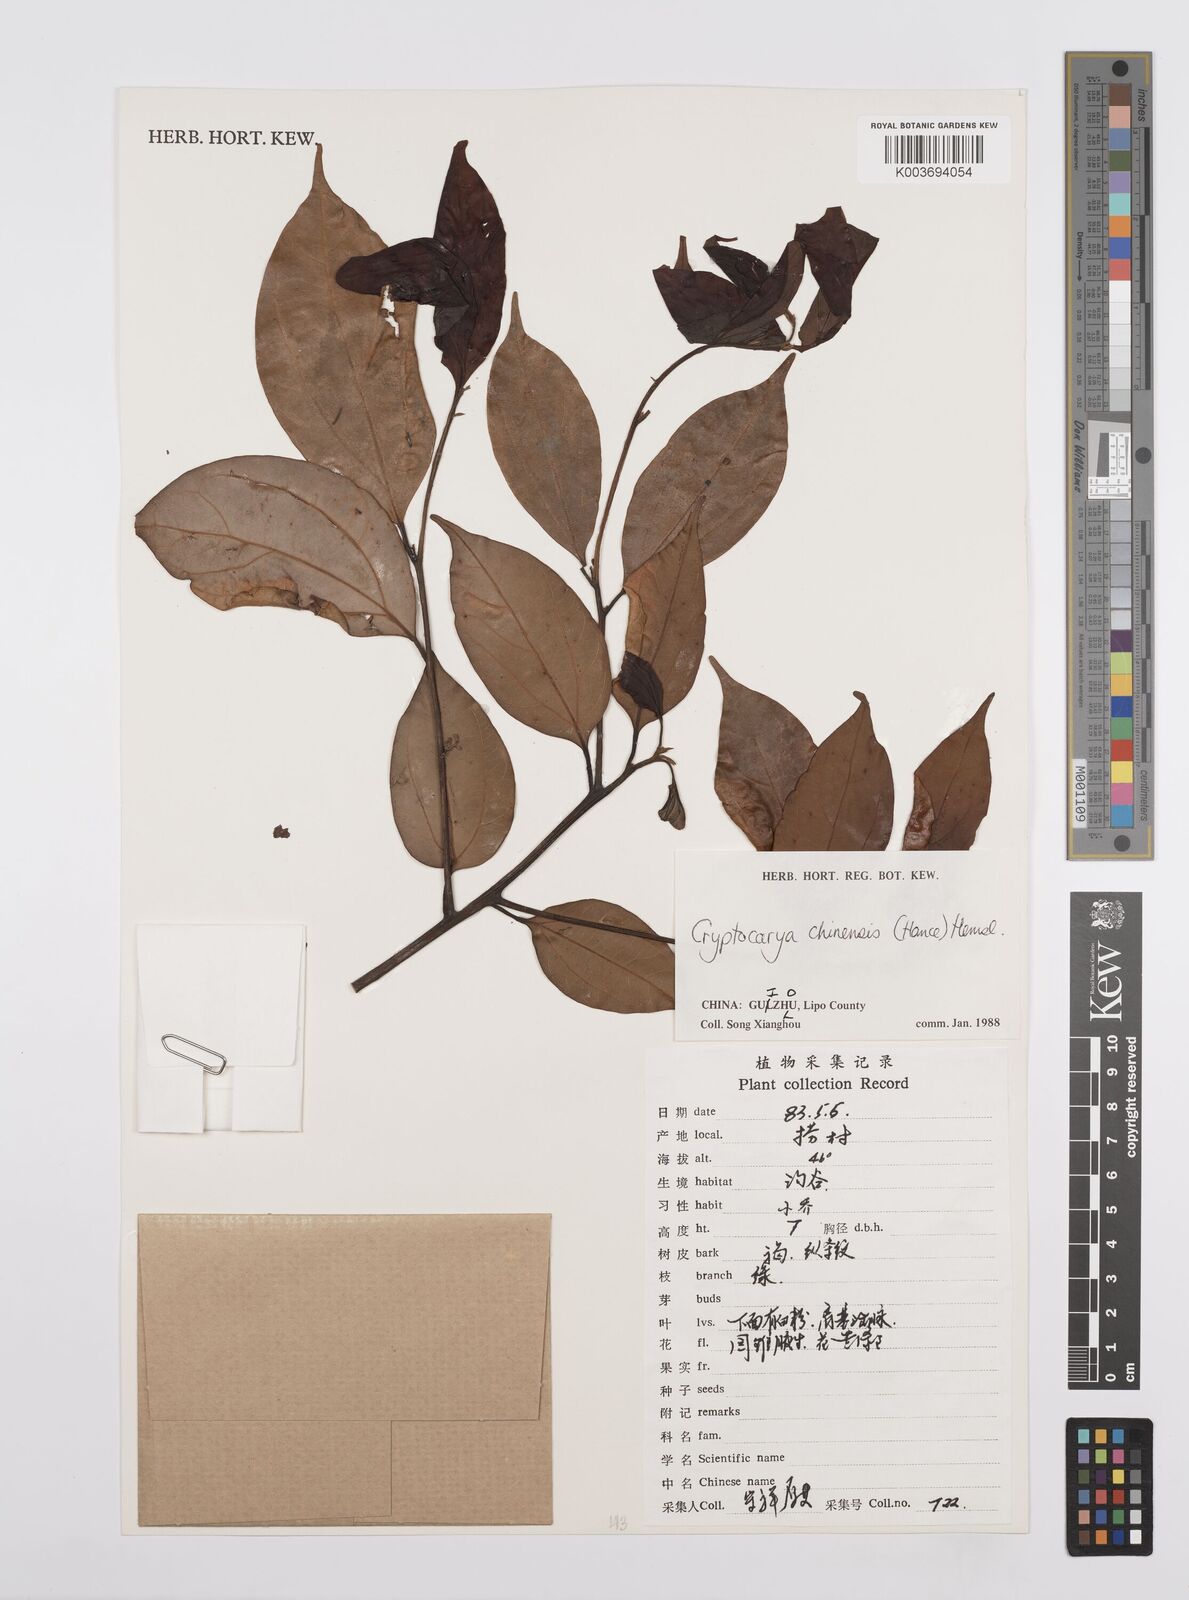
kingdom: Plantae
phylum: Tracheophyta
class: Magnoliopsida
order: Laurales
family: Lauraceae
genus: Cryptocarya
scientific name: Cryptocarya chinensis
